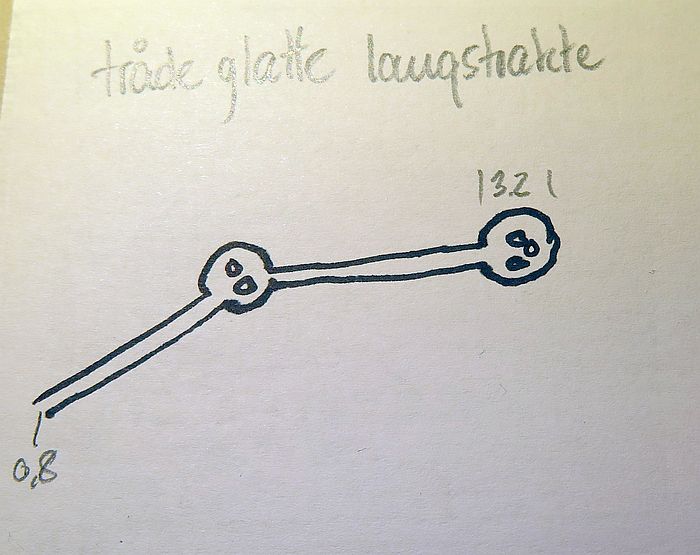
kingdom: Protozoa
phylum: Mycetozoa
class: Myxomycetes
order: Trichiales
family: Trichiaceae
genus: Trichia
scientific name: Trichia
